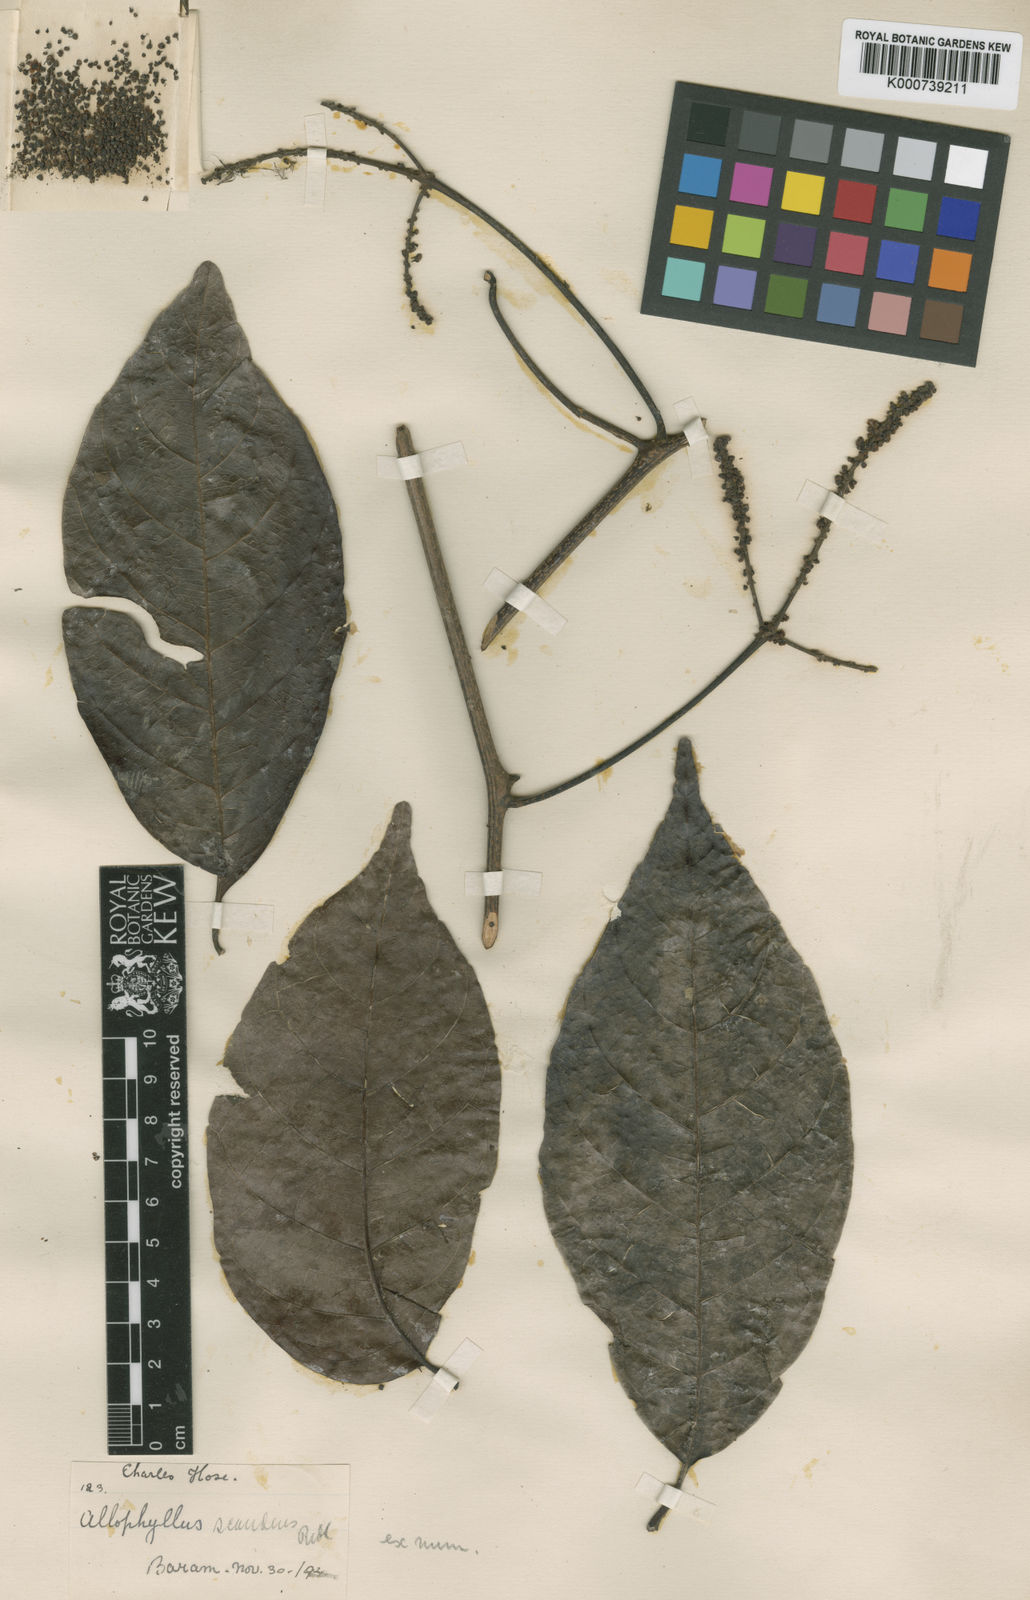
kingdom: Plantae
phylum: Tracheophyta
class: Magnoliopsida
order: Sapindales
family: Sapindaceae
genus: Allophylus
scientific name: Allophylus scandens
